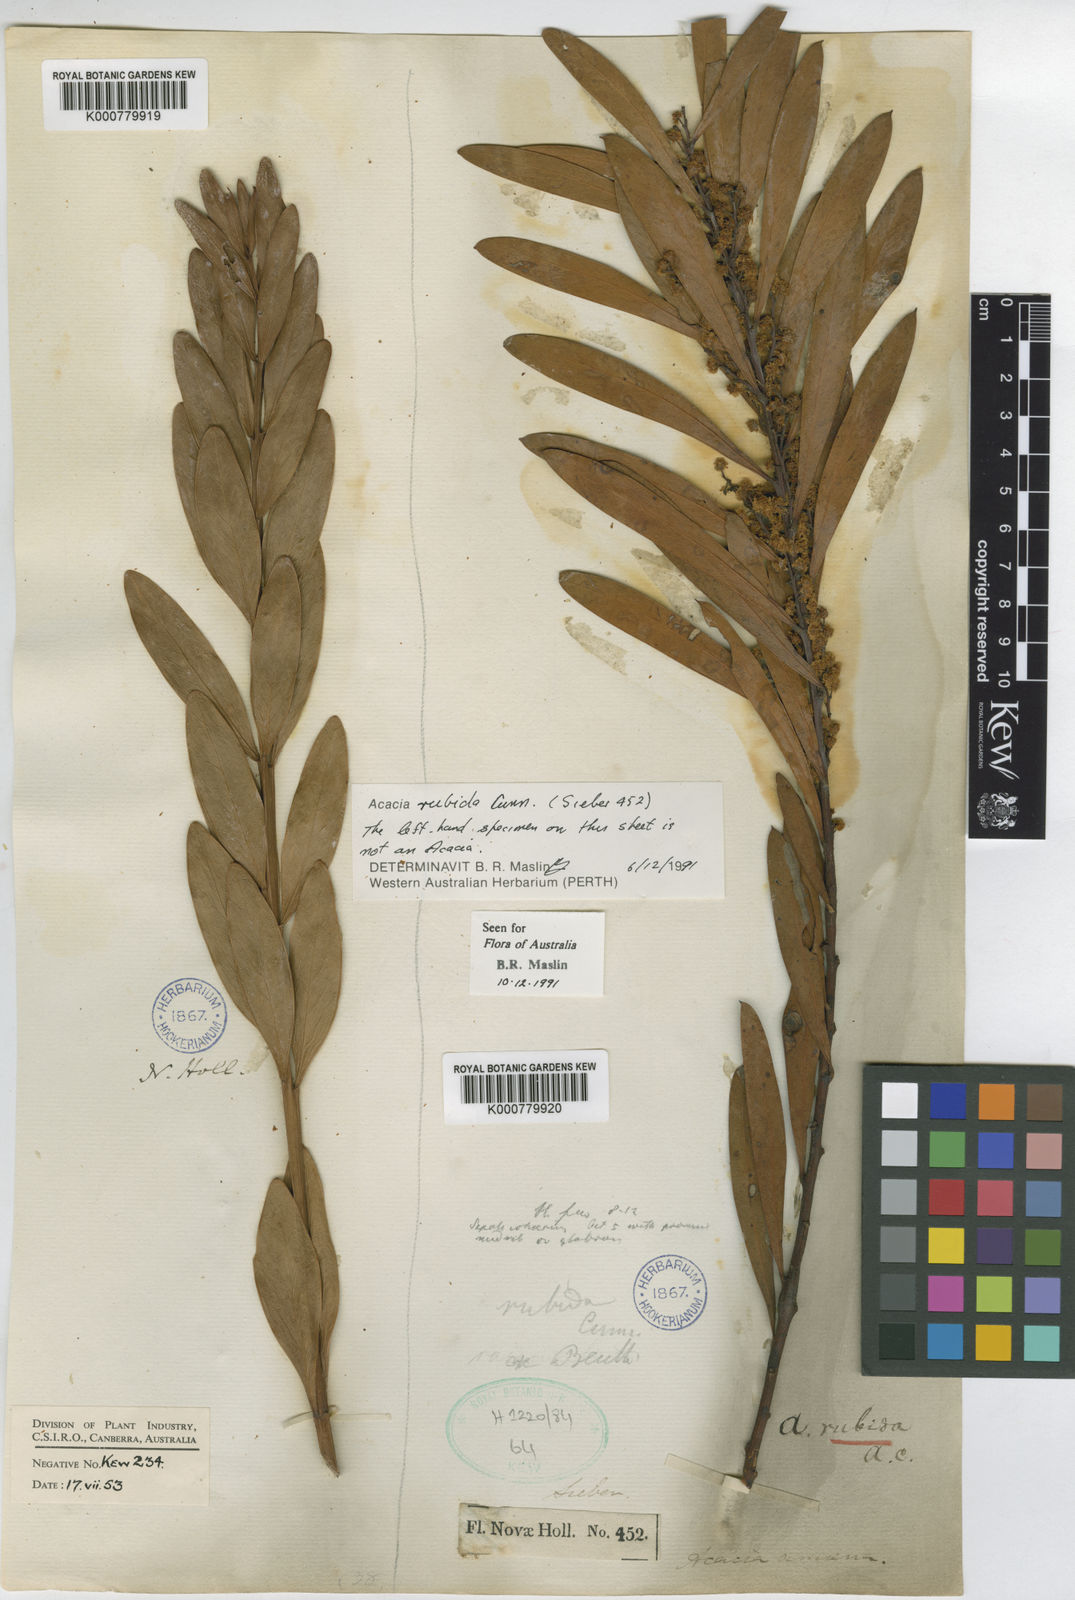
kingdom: Plantae
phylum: Tracheophyta
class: Magnoliopsida
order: Fabales
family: Fabaceae
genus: Acacia
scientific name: Acacia rubida
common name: Red leaf wattle
